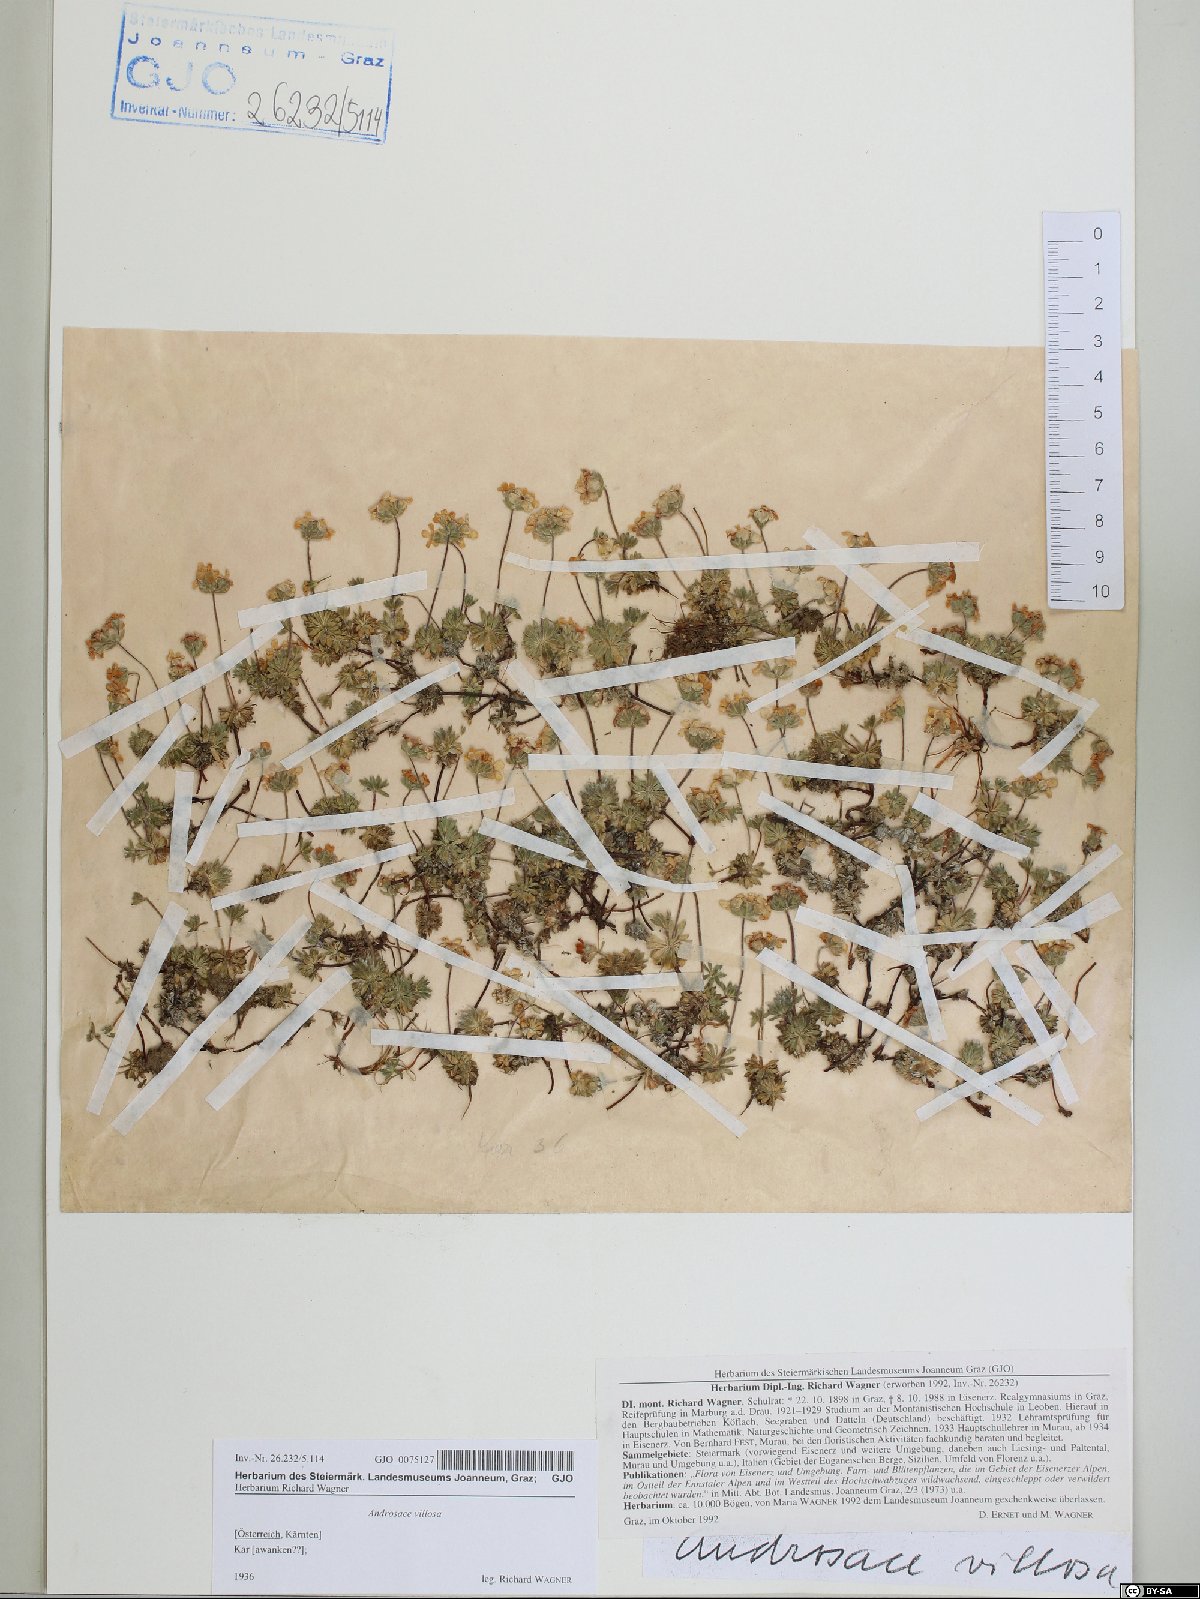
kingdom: Plantae
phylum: Tracheophyta
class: Magnoliopsida
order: Ericales
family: Primulaceae
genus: Androsace
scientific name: Androsace villosa
